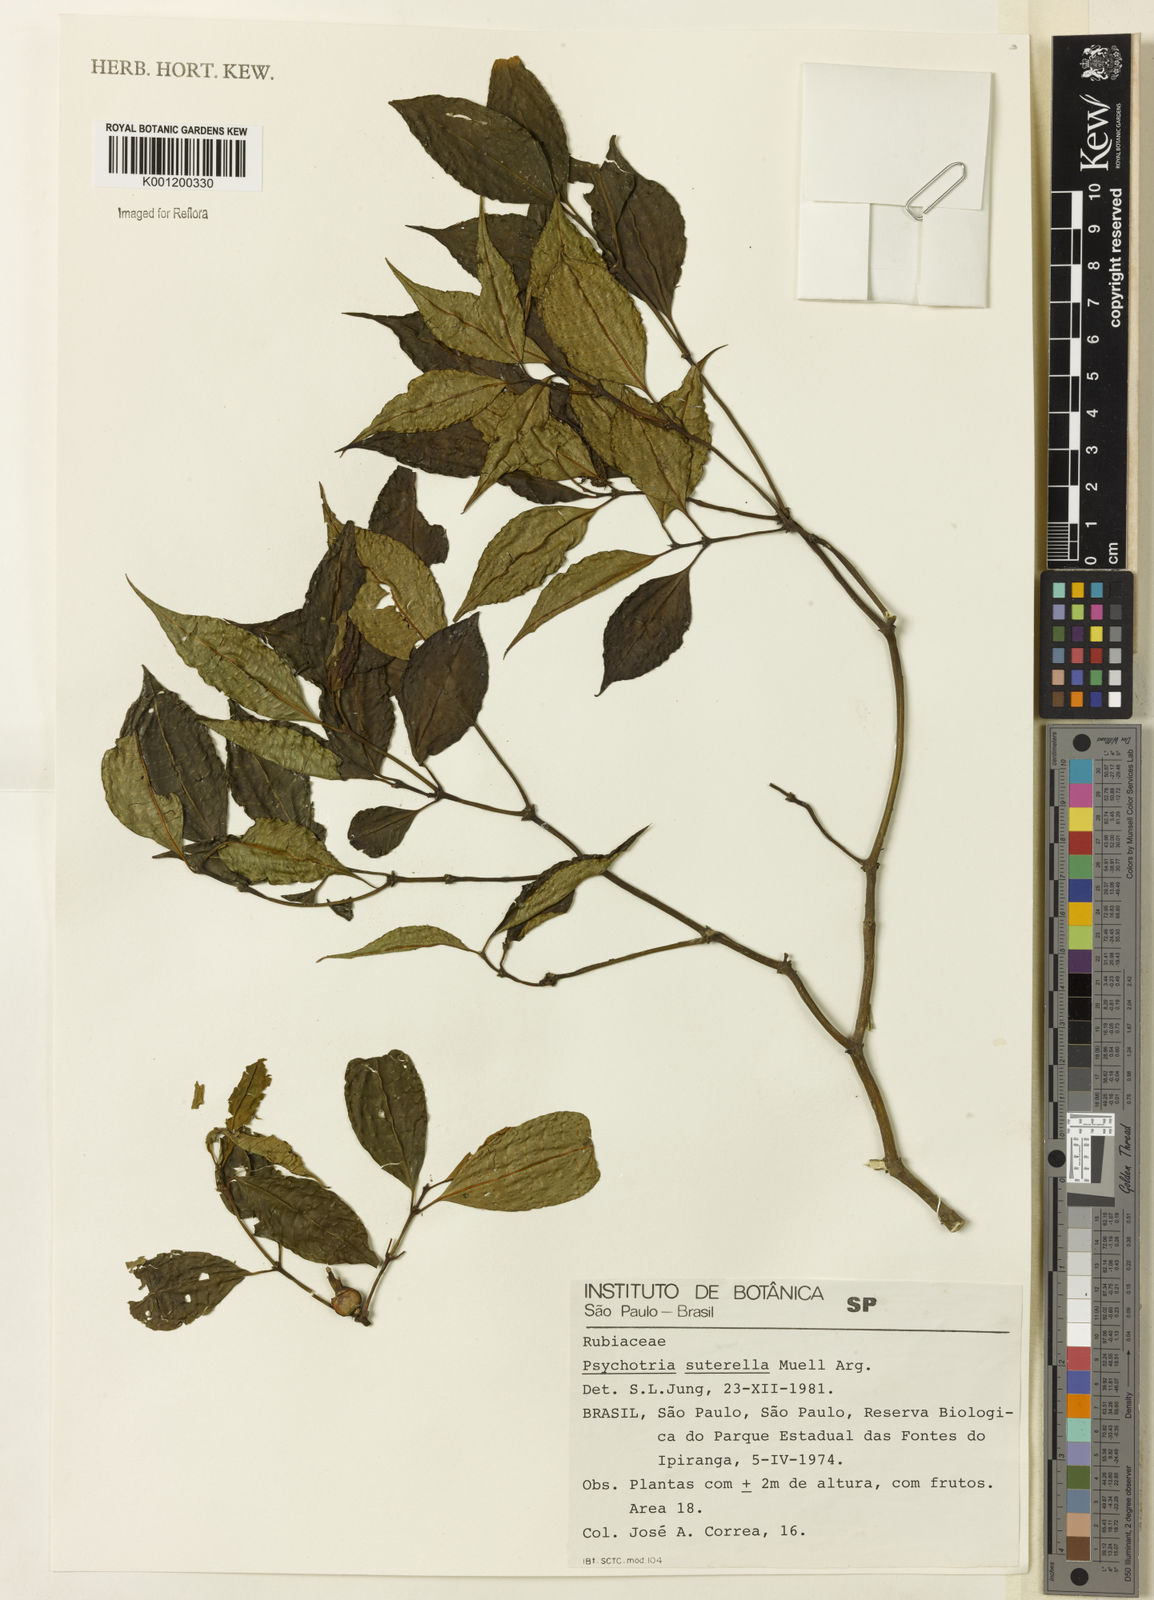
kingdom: Plantae
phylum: Tracheophyta
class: Magnoliopsida
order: Gentianales
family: Rubiaceae
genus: Psychotria
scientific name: Psychotria
